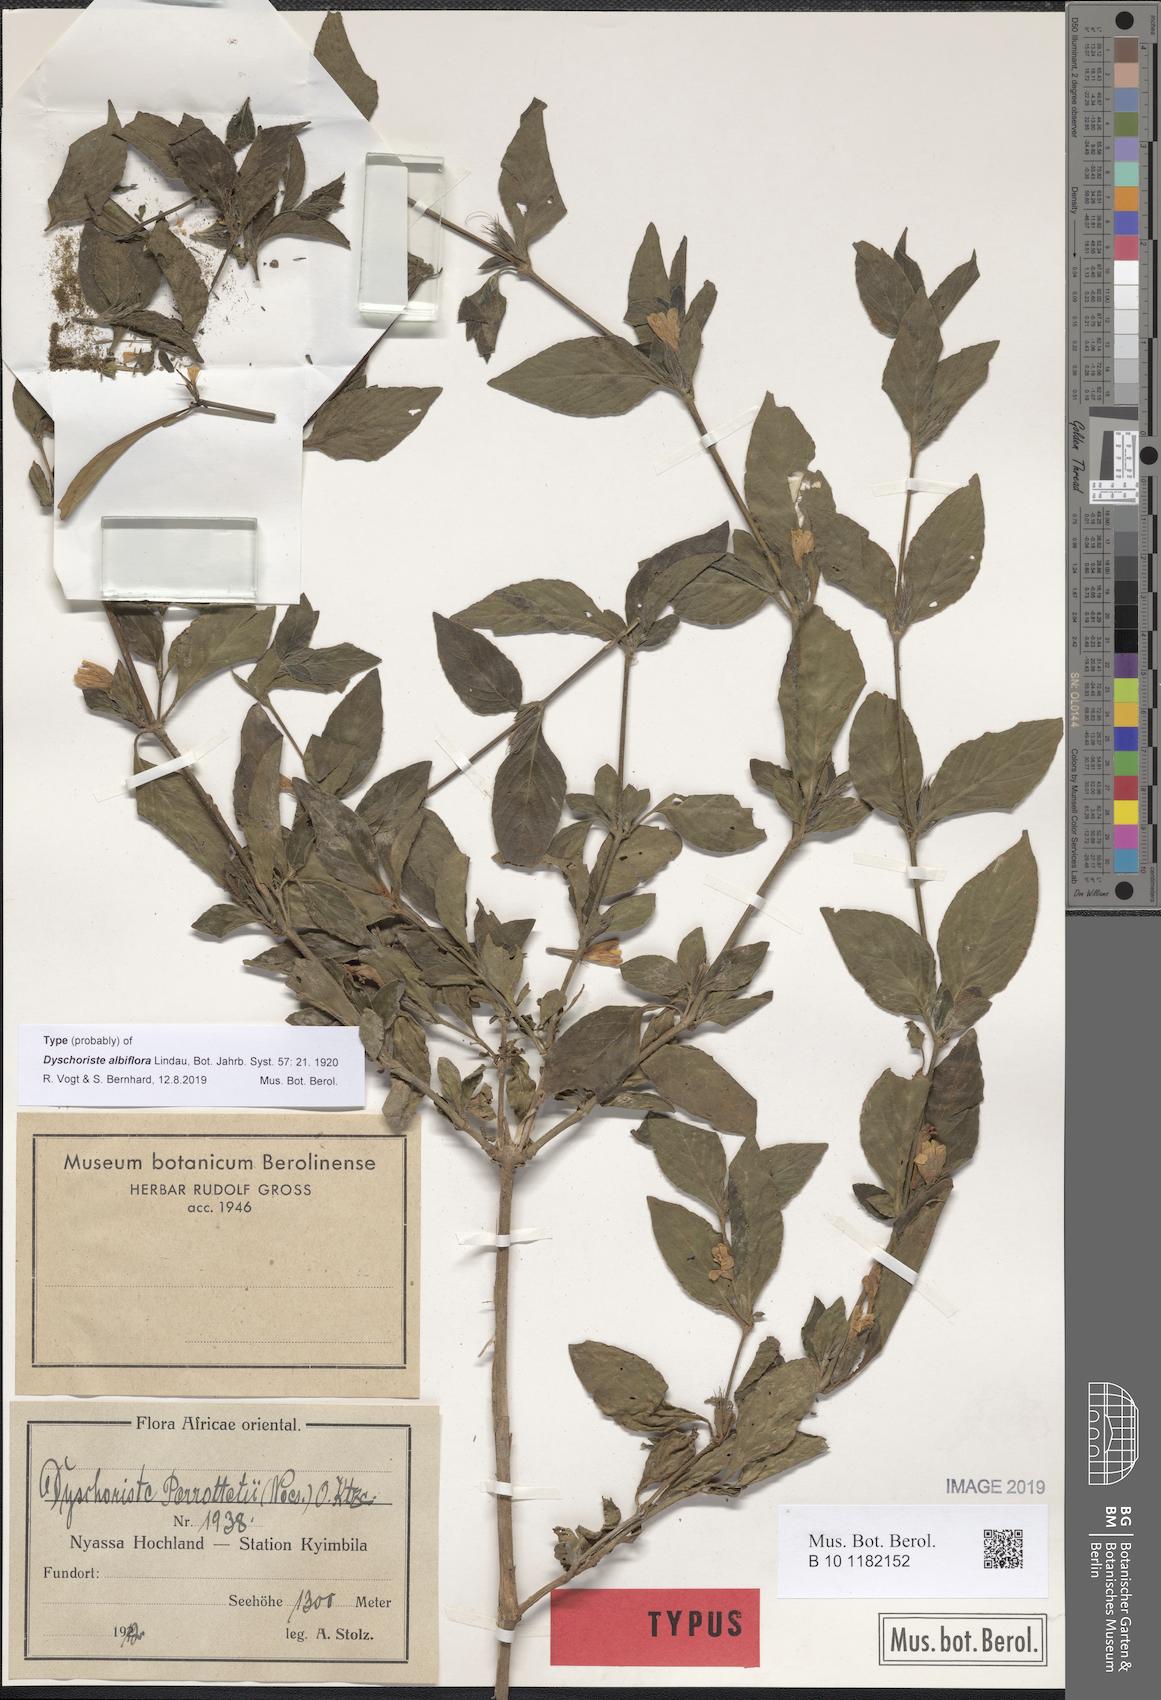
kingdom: Plantae
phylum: Tracheophyta
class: Magnoliopsida
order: Lamiales
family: Acanthaceae
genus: Dyschoriste
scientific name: Dyschoriste albiflora
